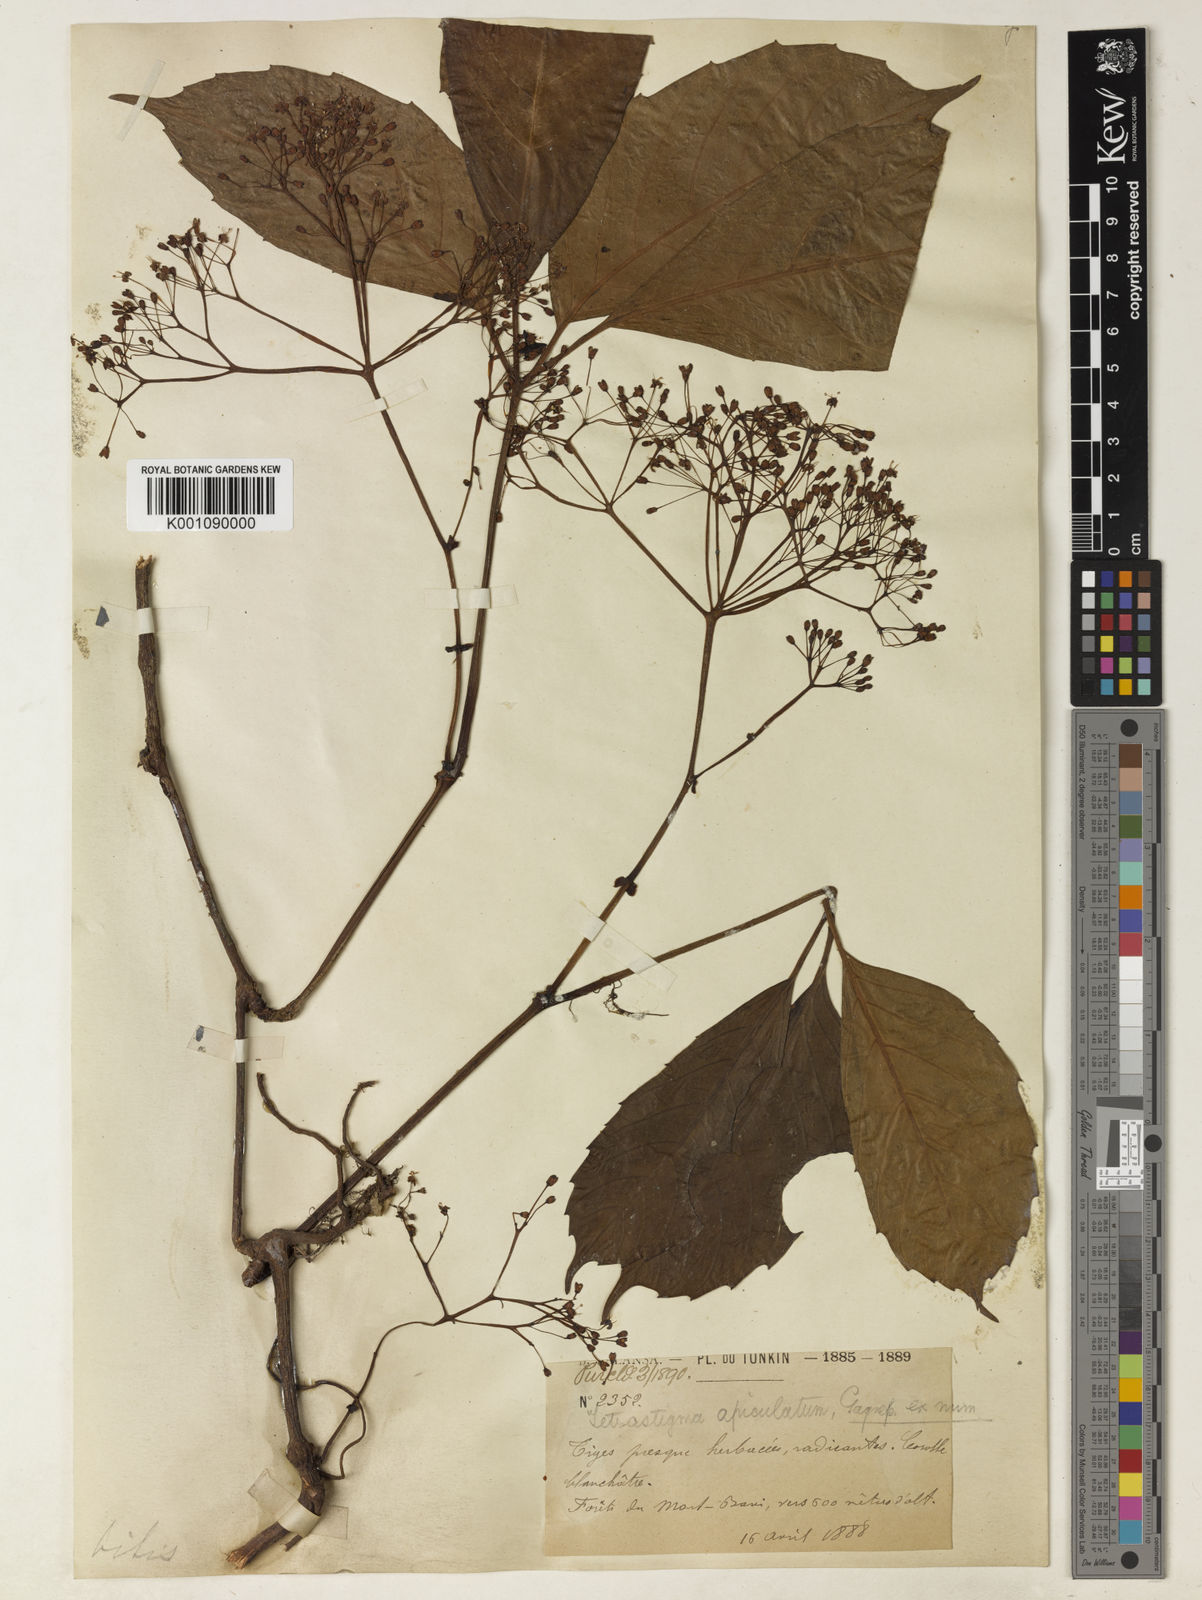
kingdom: Plantae
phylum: Tracheophyta
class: Magnoliopsida
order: Vitales
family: Vitaceae
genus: Tetrastigma
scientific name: Tetrastigma apiculatum
